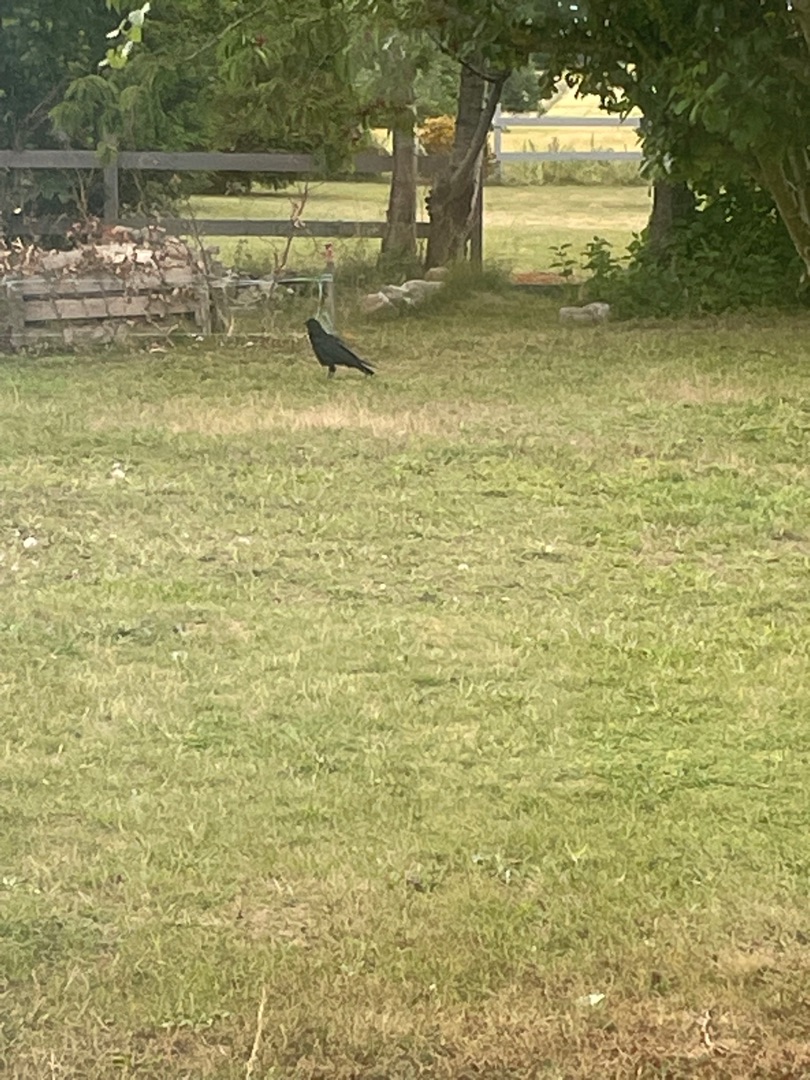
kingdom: Animalia
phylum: Chordata
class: Aves
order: Passeriformes
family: Corvidae
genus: Corvus
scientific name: Corvus frugilegus
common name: Råge
